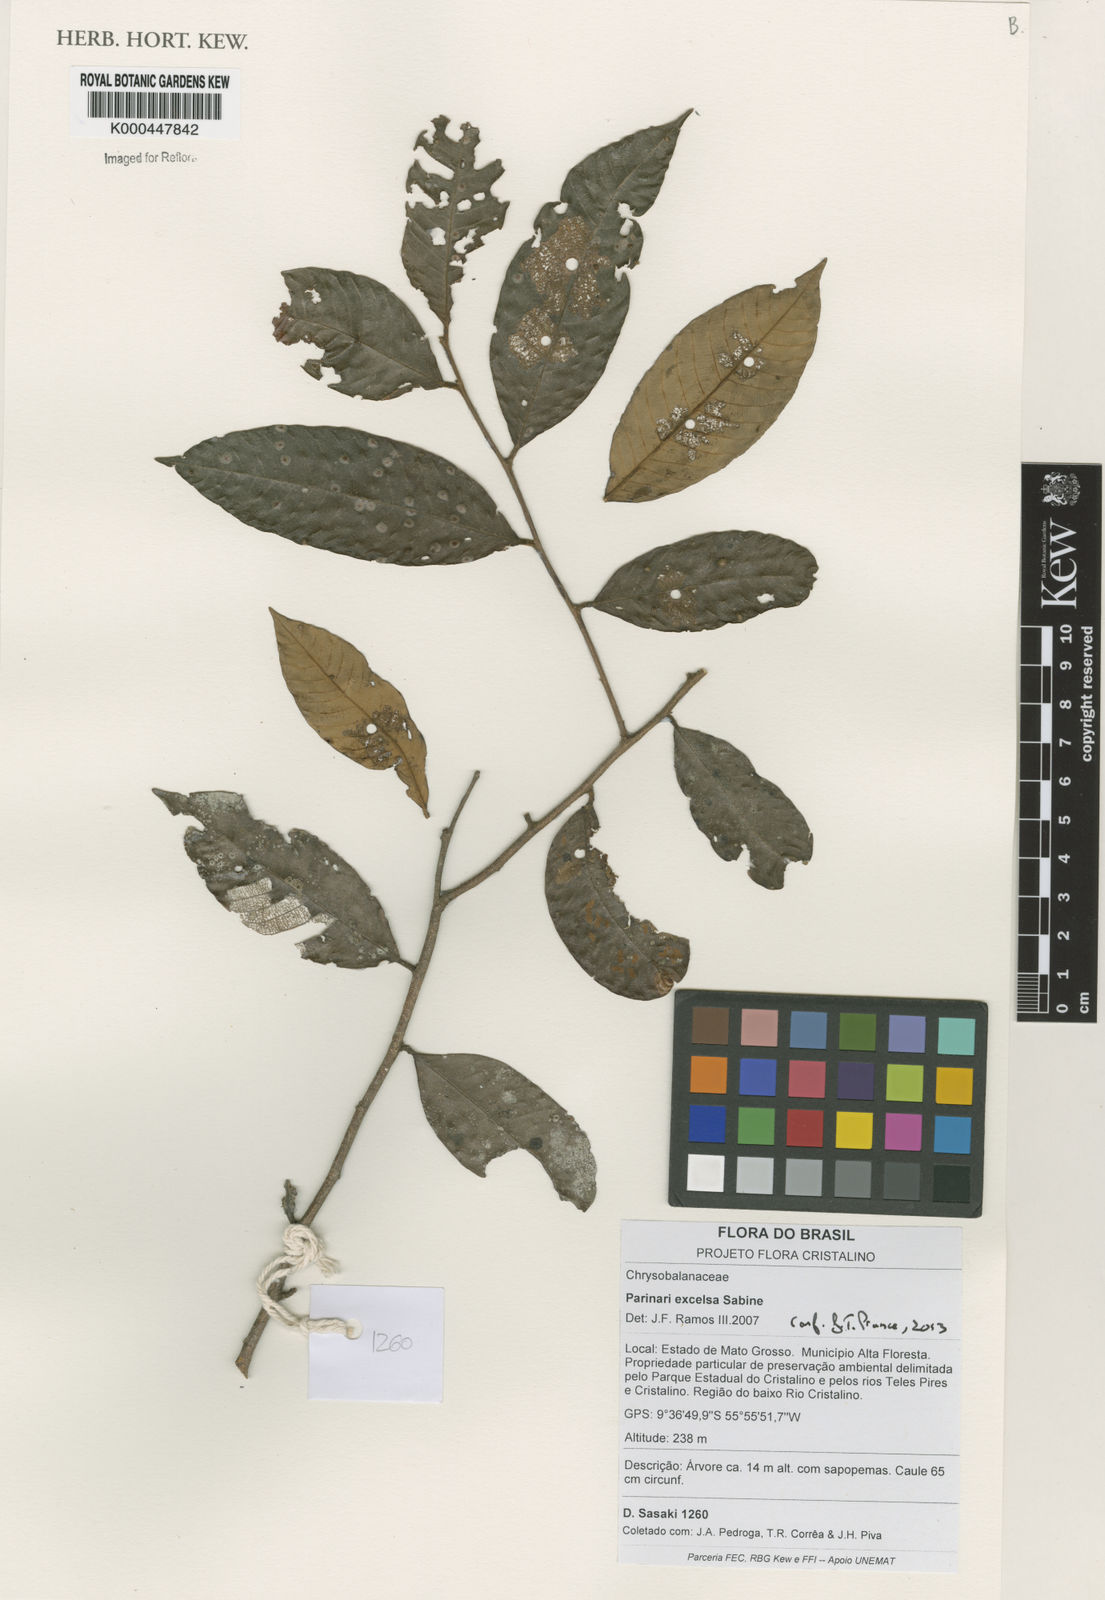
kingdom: Plantae
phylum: Tracheophyta
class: Magnoliopsida
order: Malpighiales
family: Chrysobalanaceae
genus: Parinari
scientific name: Parinari excelsa
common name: Guinea-plum
